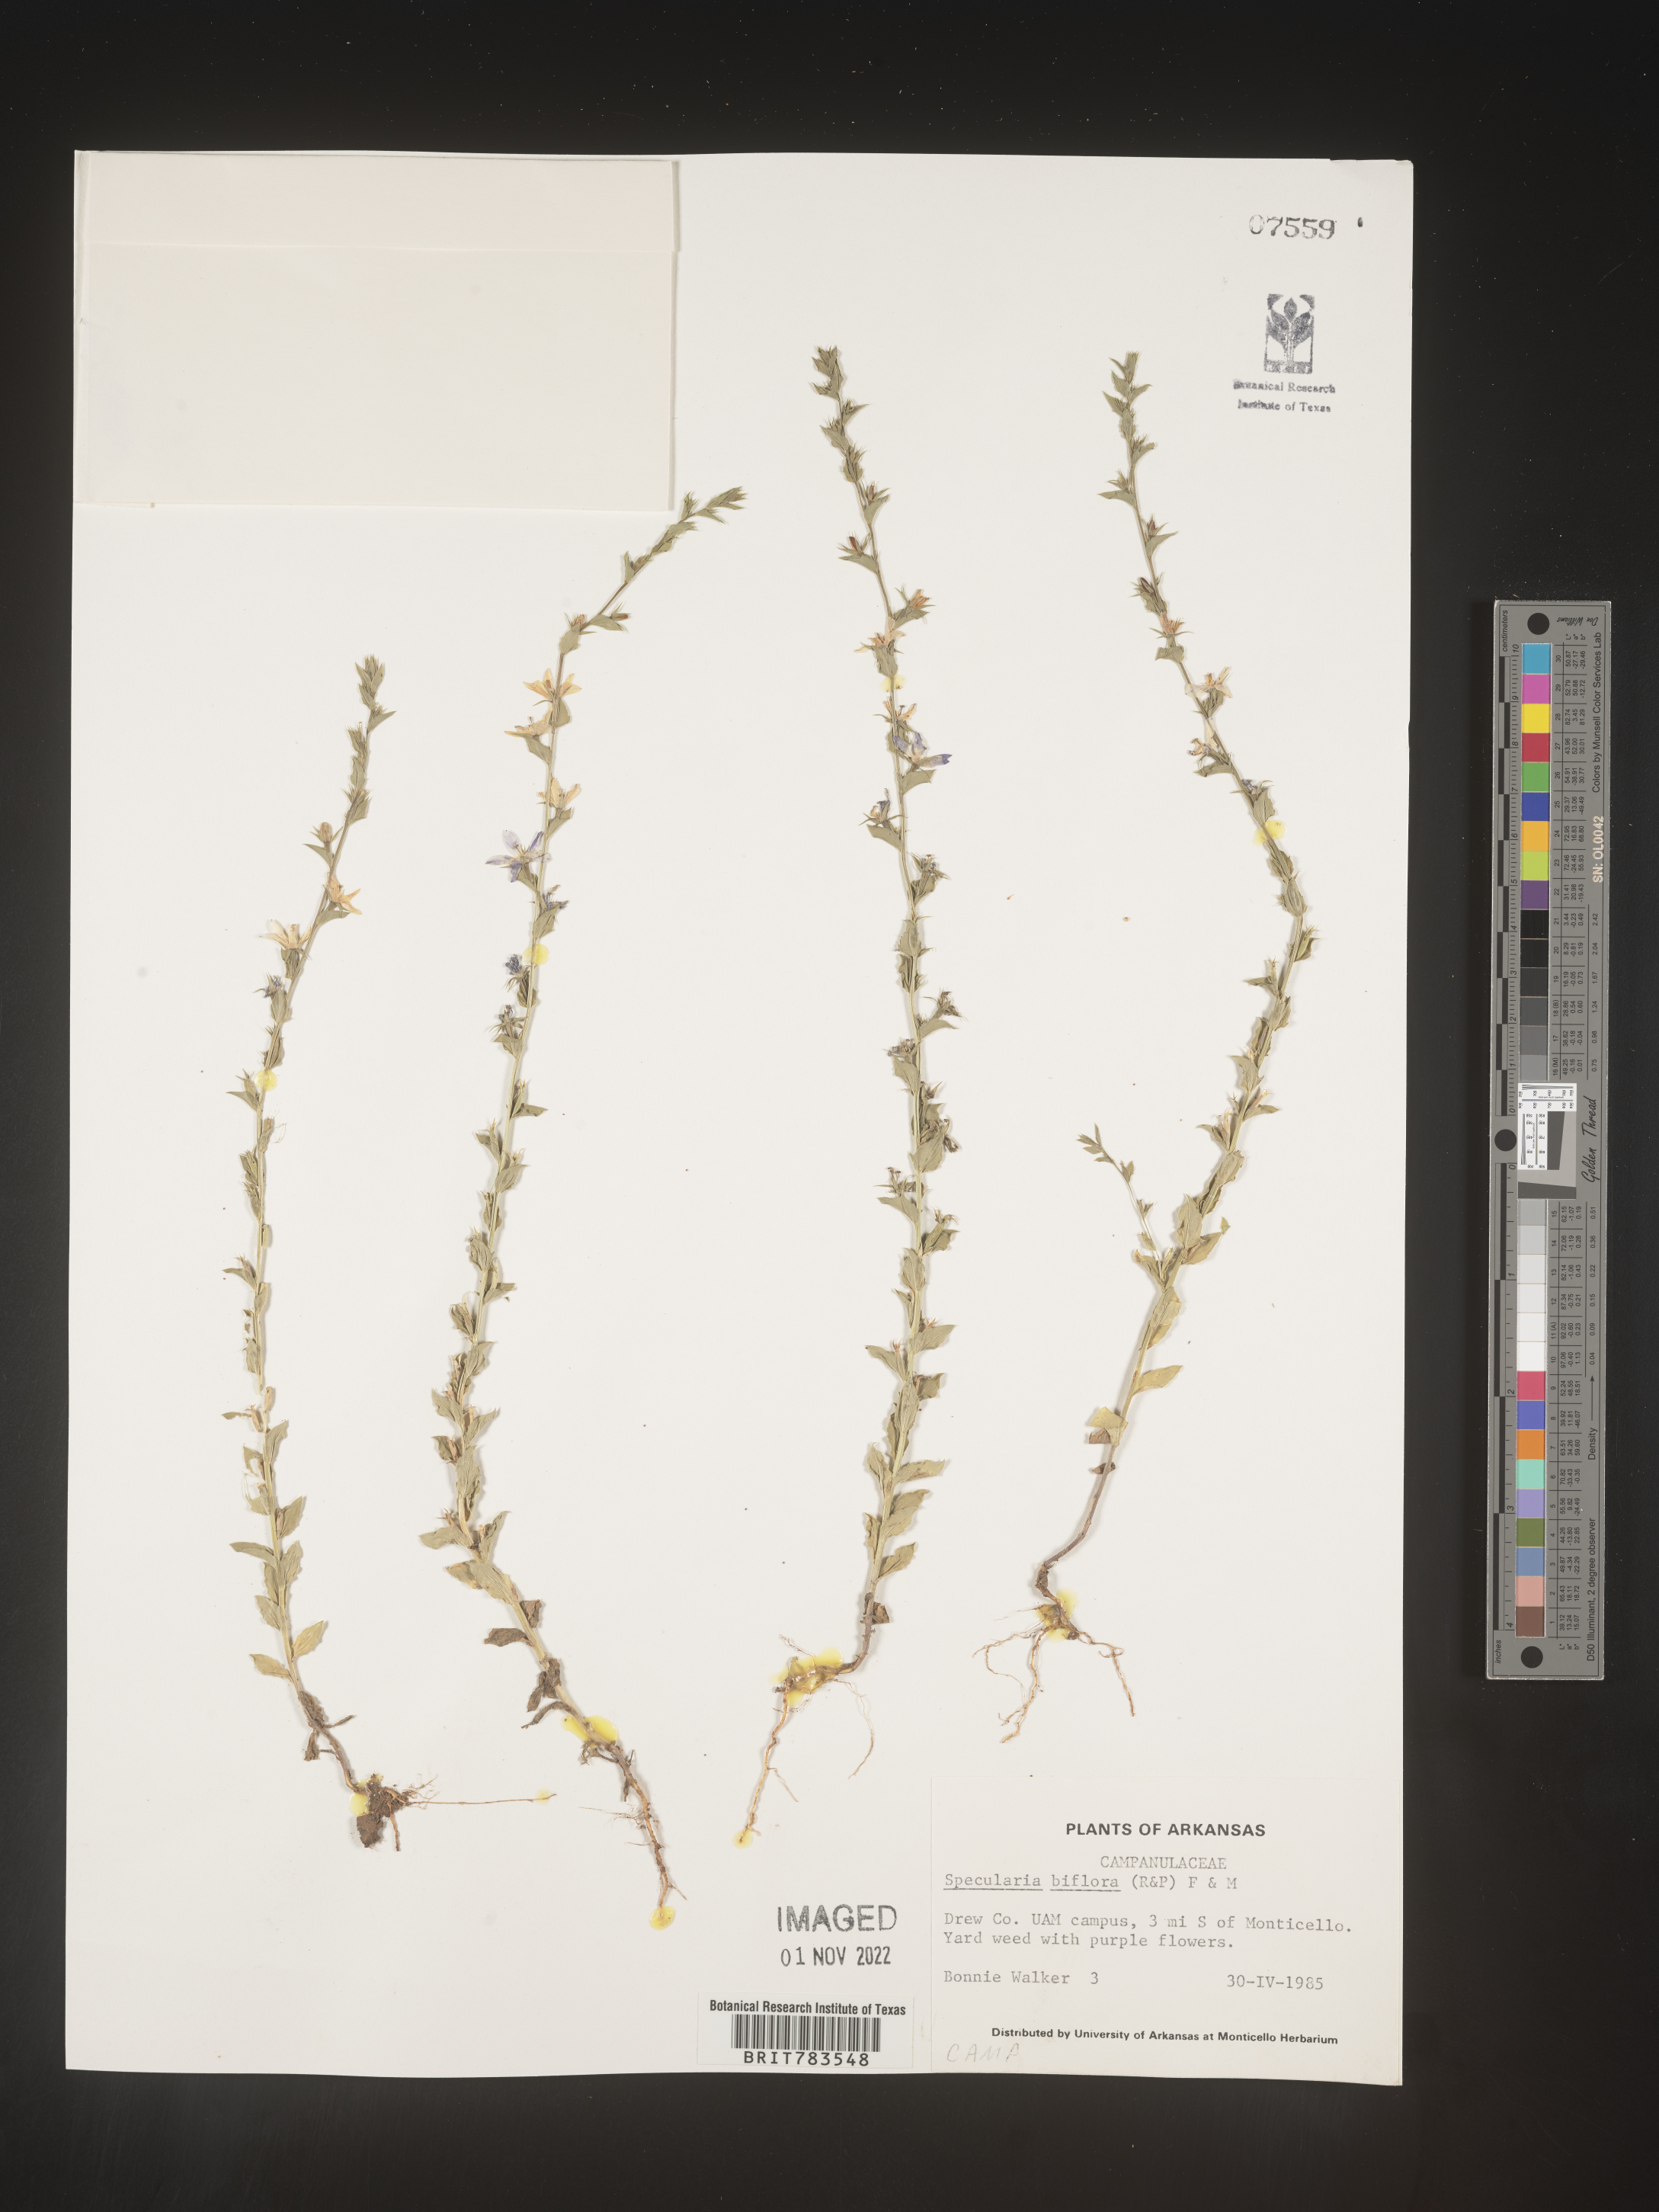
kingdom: Plantae
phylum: Tracheophyta
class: Magnoliopsida
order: Asterales
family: Campanulaceae
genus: Triodanis
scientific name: Triodanis perfoliata
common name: Clasping venus' looking-glass
